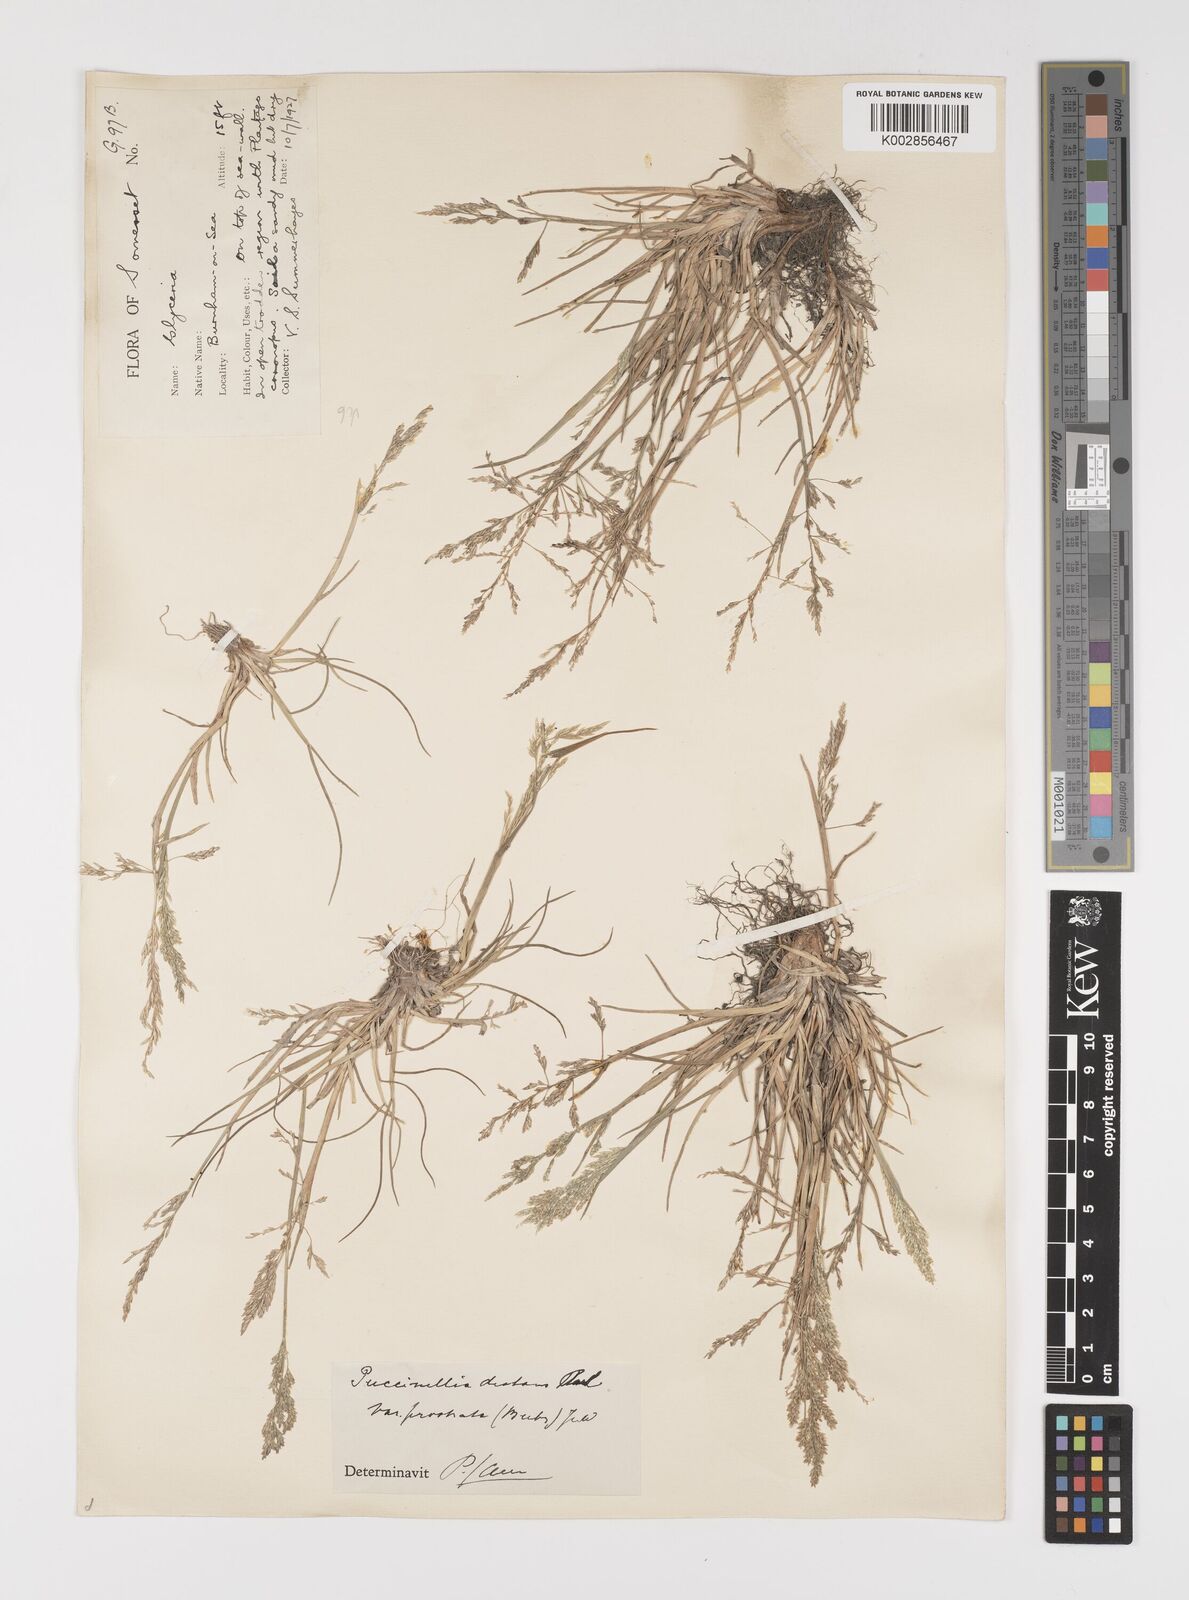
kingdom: Plantae
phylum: Tracheophyta
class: Liliopsida
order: Poales
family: Poaceae
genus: Puccinellia
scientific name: Puccinellia distans
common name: Weeping alkaligrass
